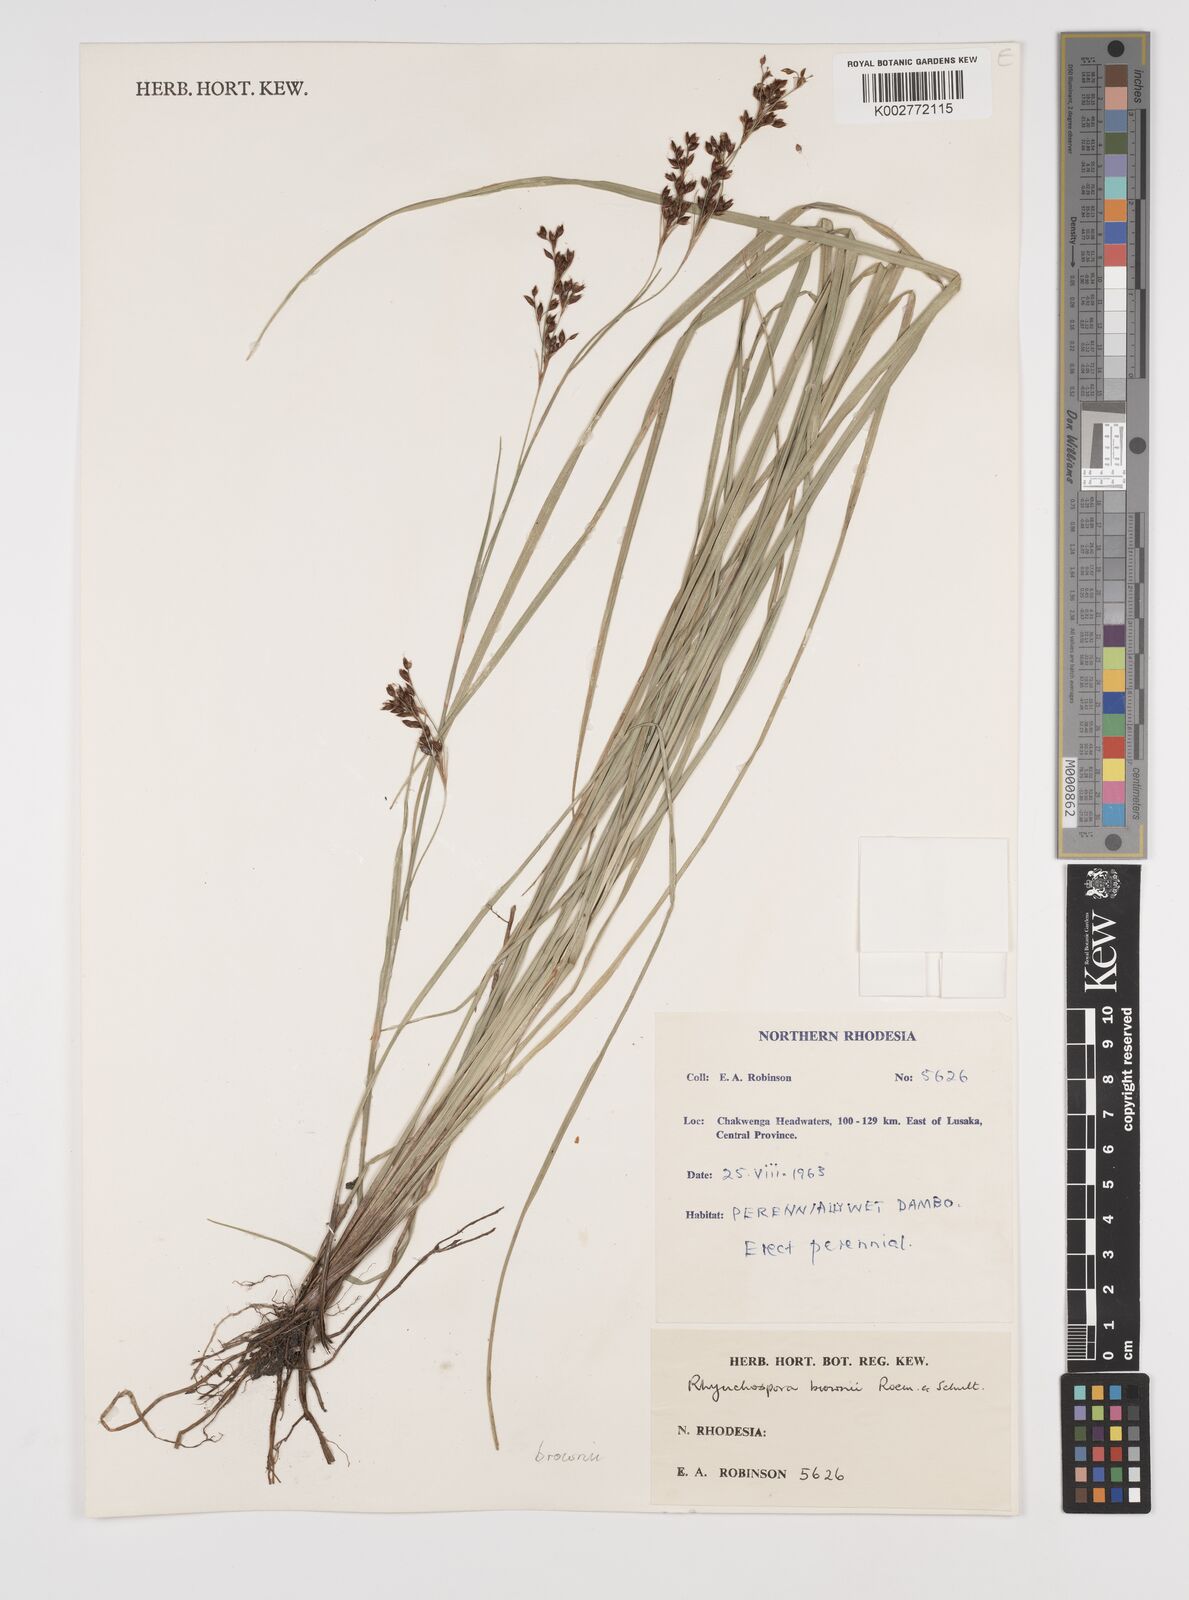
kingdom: Plantae
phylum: Tracheophyta
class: Liliopsida
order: Poales
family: Cyperaceae
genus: Rhynchospora
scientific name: Rhynchospora rugosa
